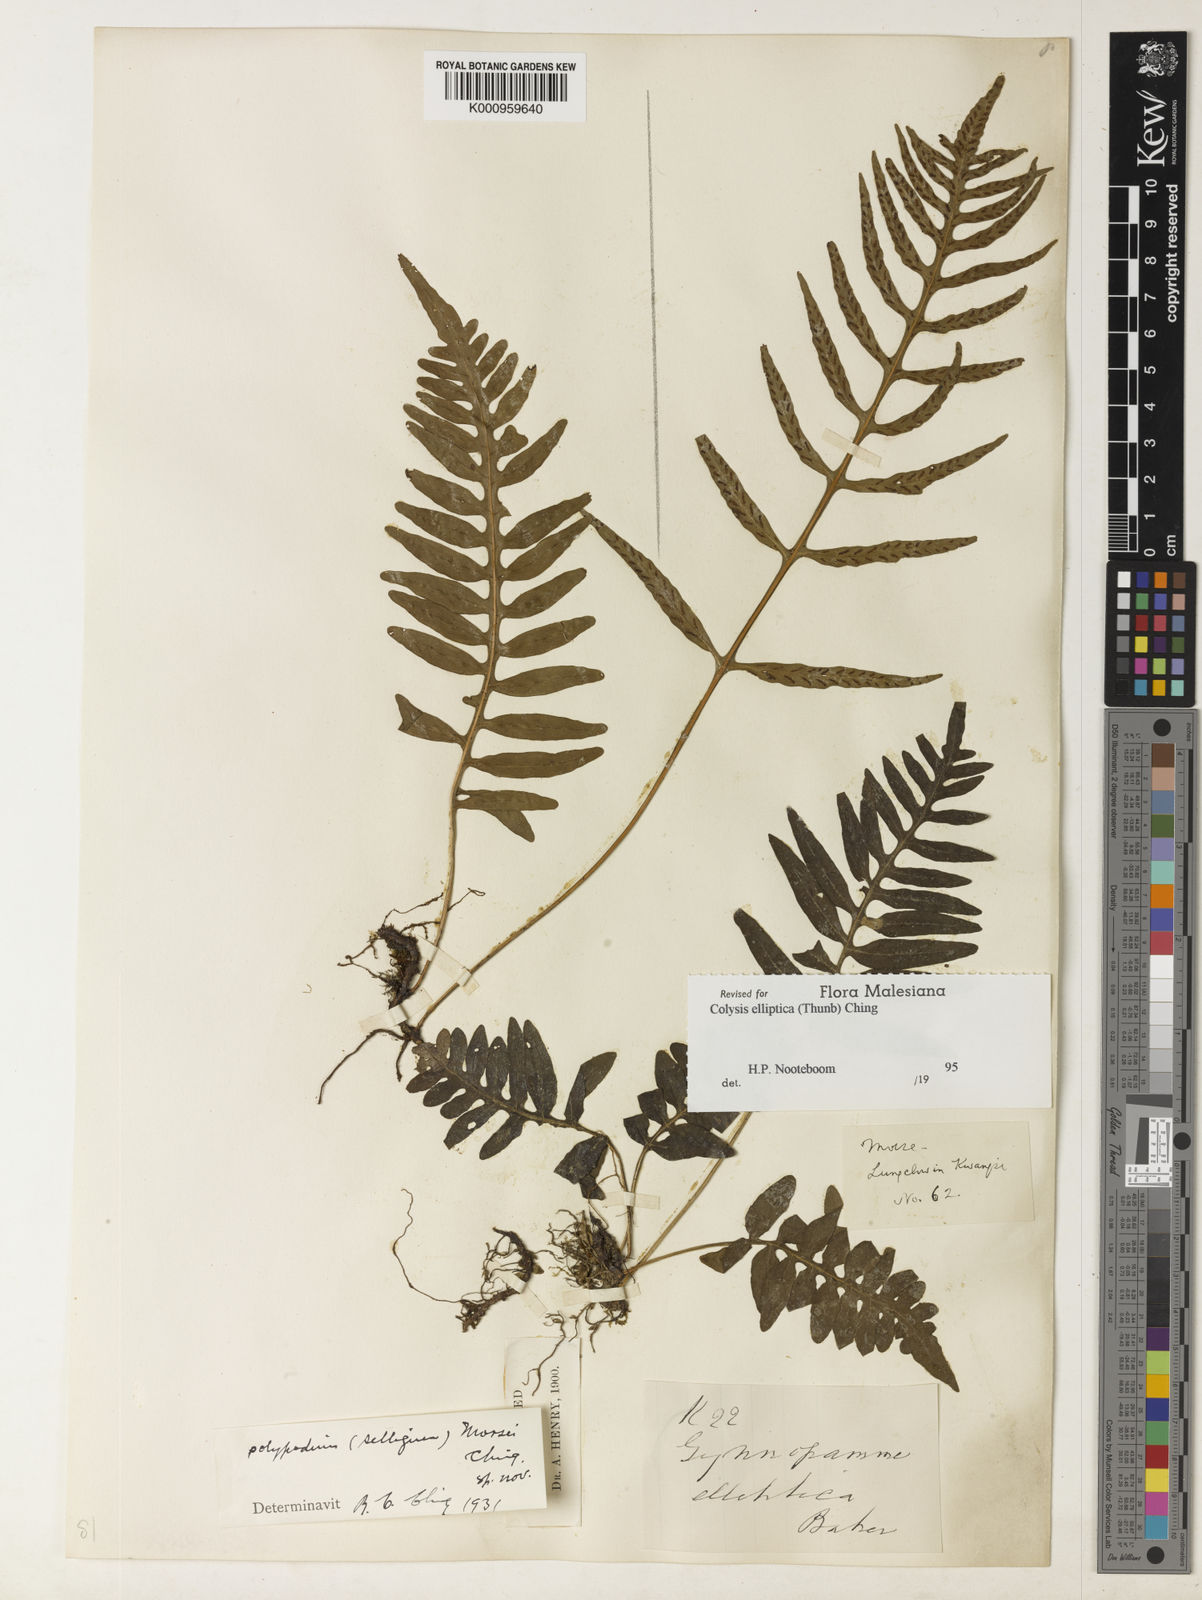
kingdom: Plantae
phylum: Tracheophyta
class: Polypodiopsida
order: Polypodiales
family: Polypodiaceae
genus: Leptochilus
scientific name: Leptochilus ellipticus
